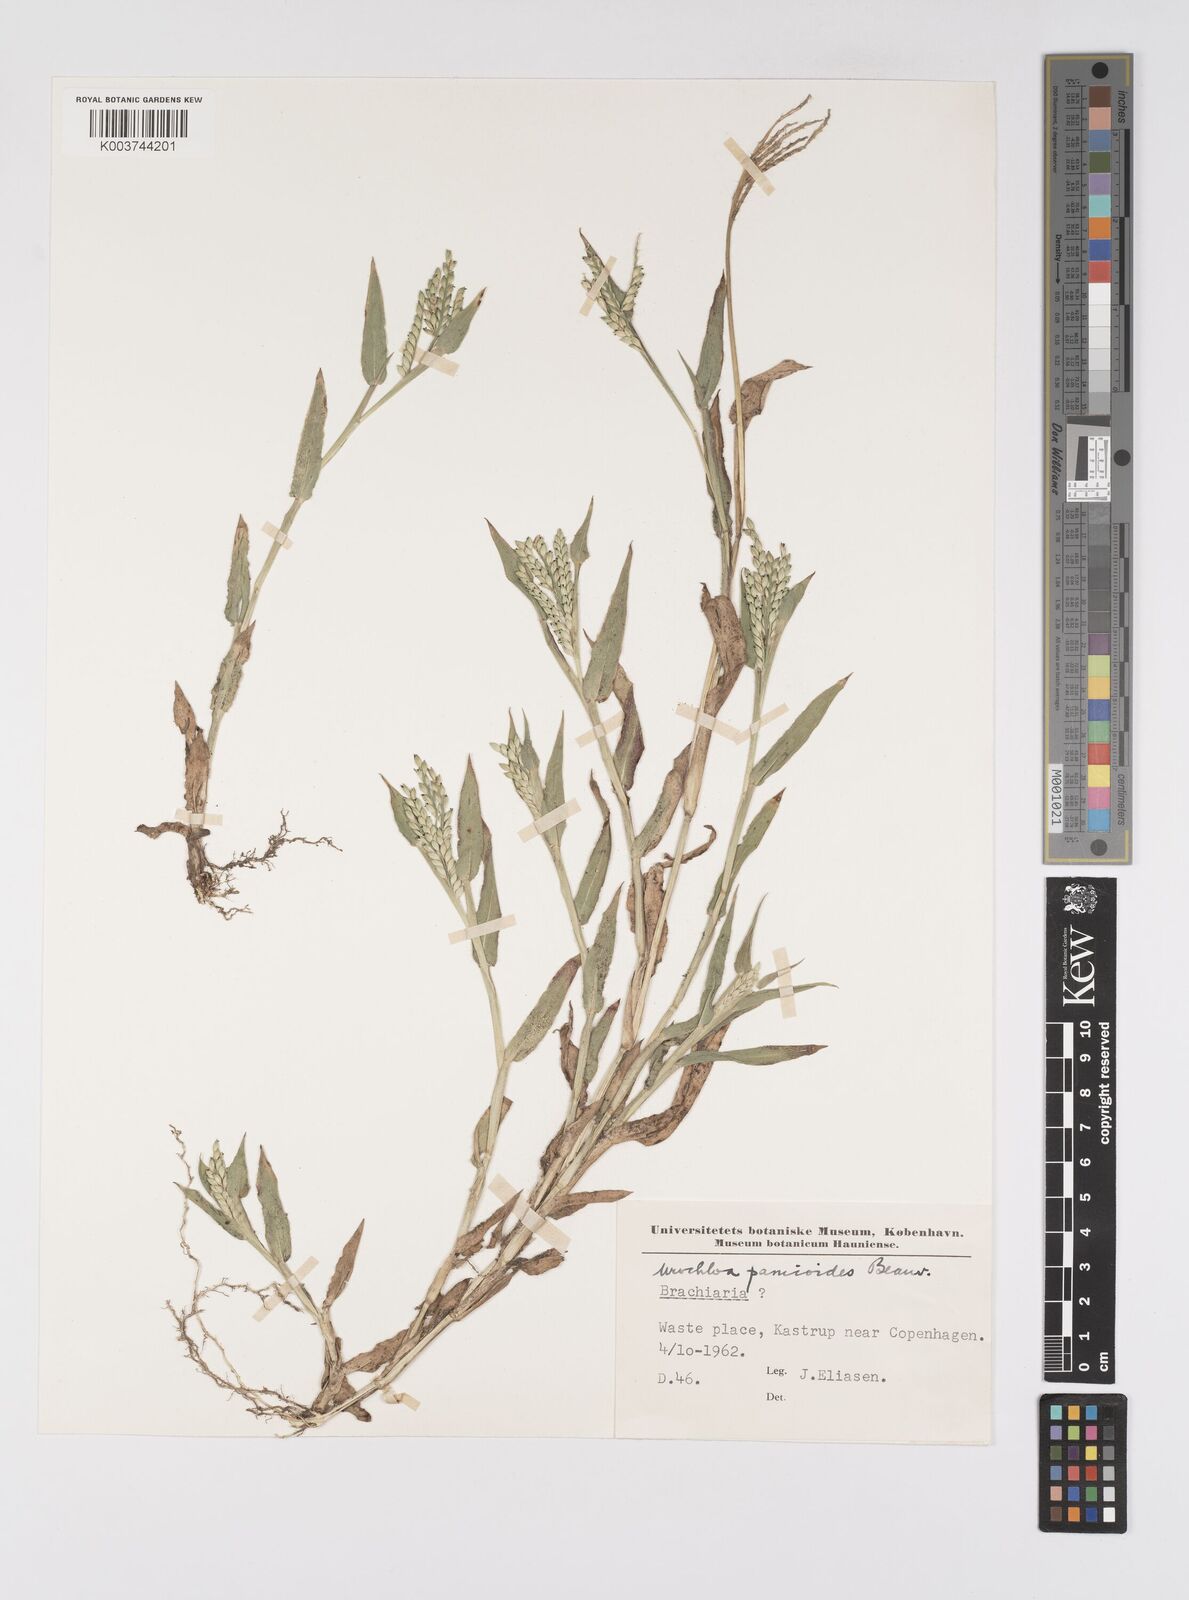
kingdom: Plantae
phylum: Tracheophyta
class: Liliopsida
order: Poales
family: Poaceae
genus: Urochloa
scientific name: Urochloa panicoides
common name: Sharp-flowered signal-grass
